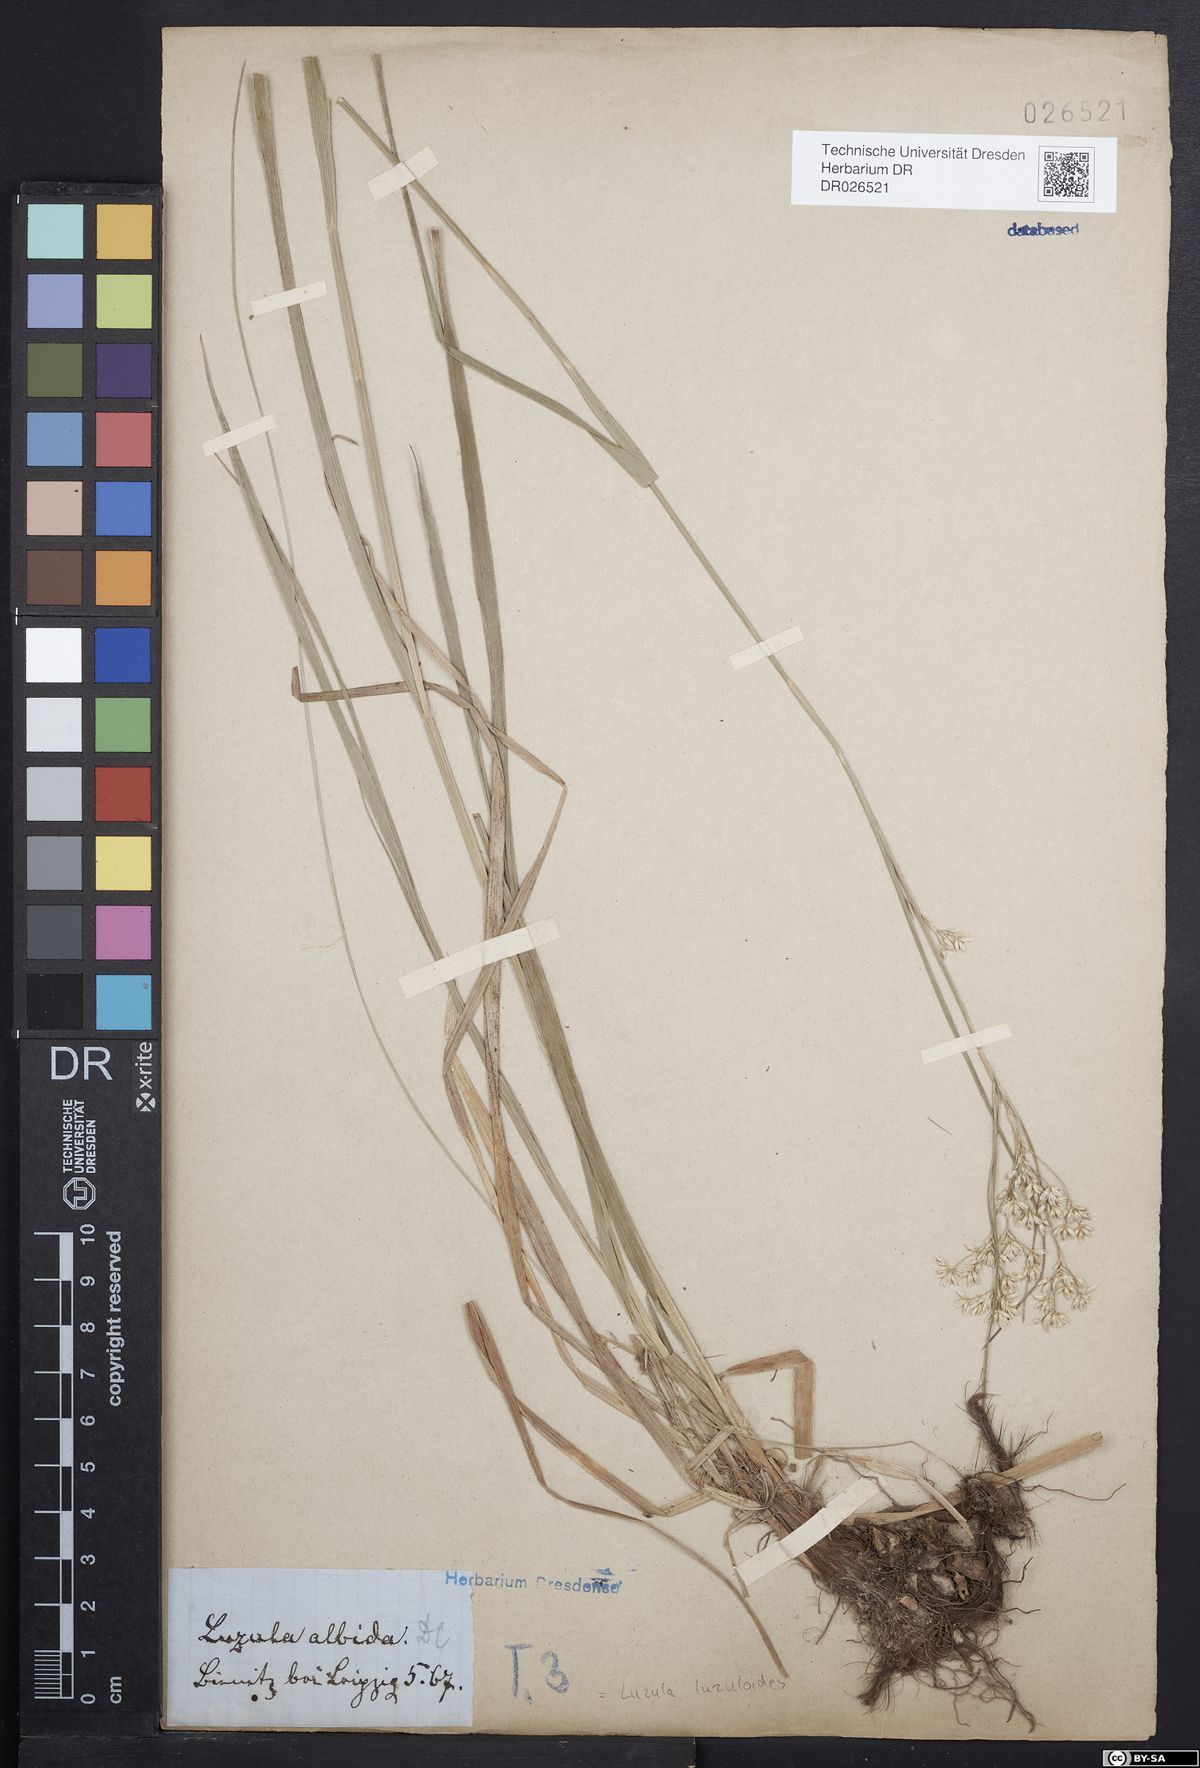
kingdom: Plantae
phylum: Tracheophyta
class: Liliopsida
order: Poales
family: Juncaceae
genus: Luzula
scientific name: Luzula luzuloides
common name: White wood-rush
